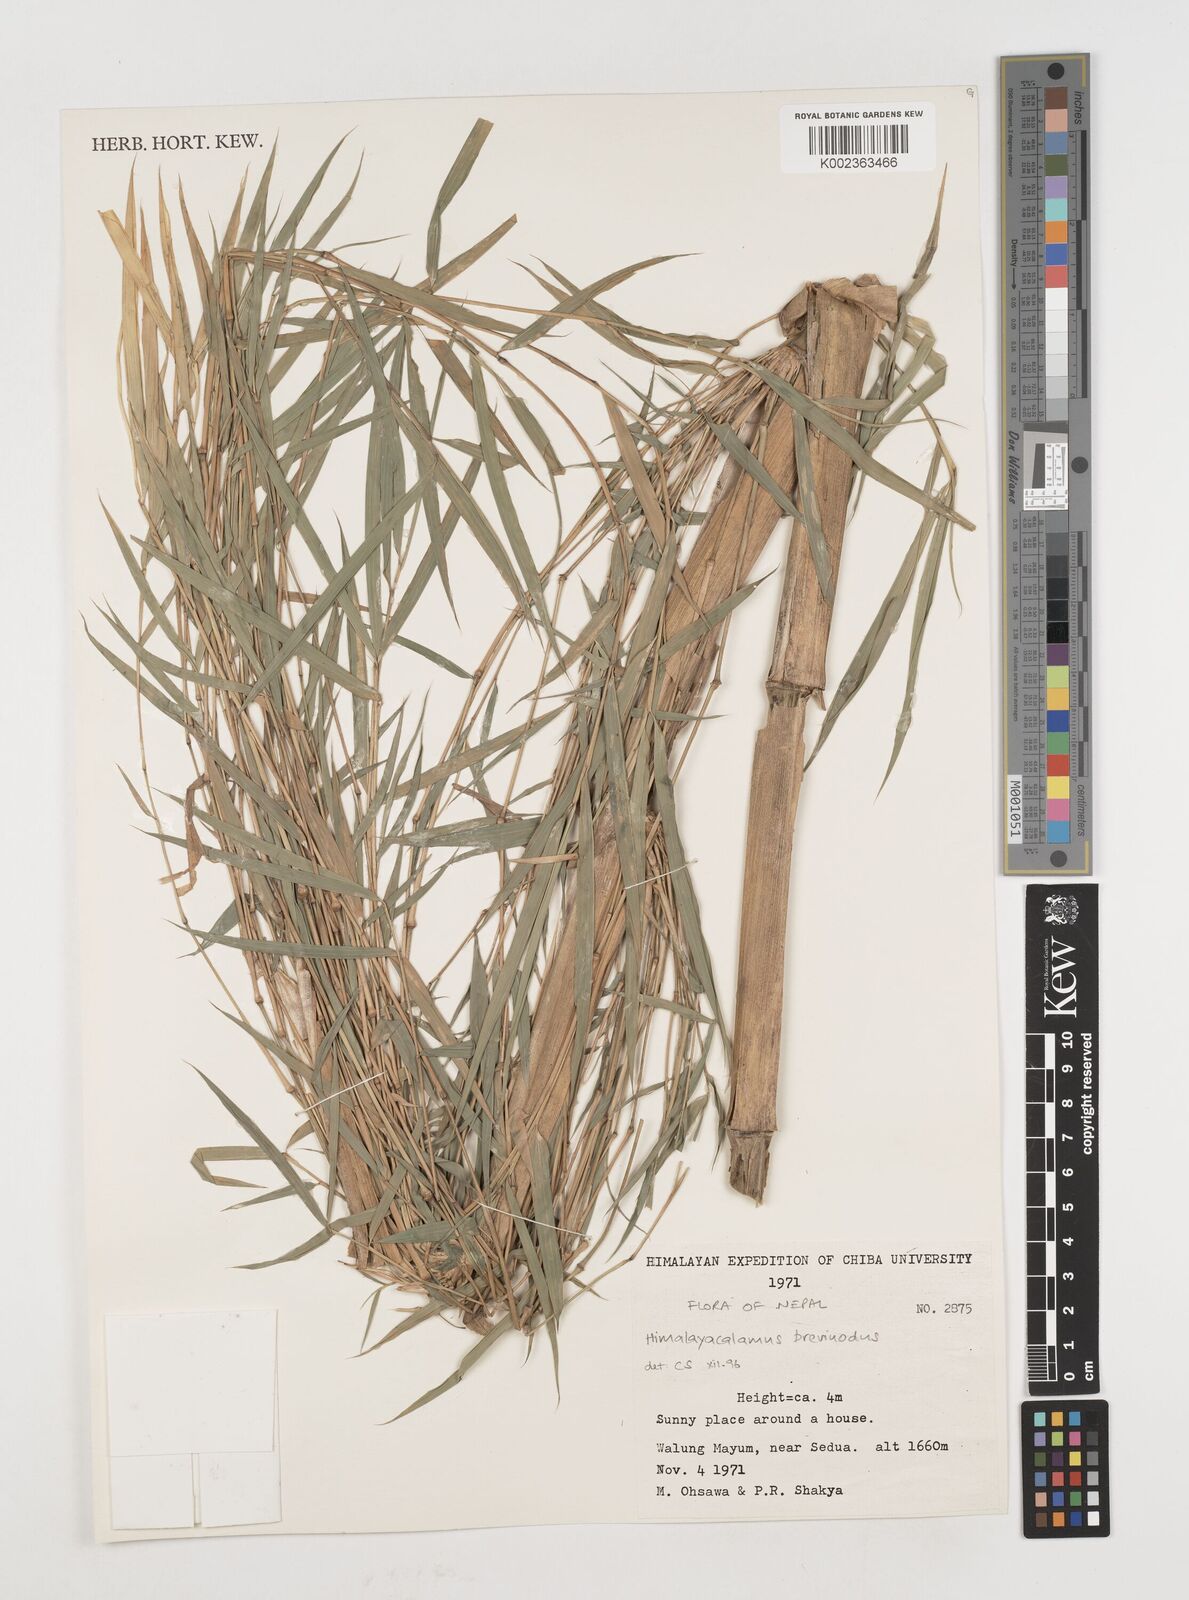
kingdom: Plantae
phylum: Tracheophyta
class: Liliopsida
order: Poales
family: Poaceae
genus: Himalayacalamus
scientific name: Himalayacalamus brevinodus
